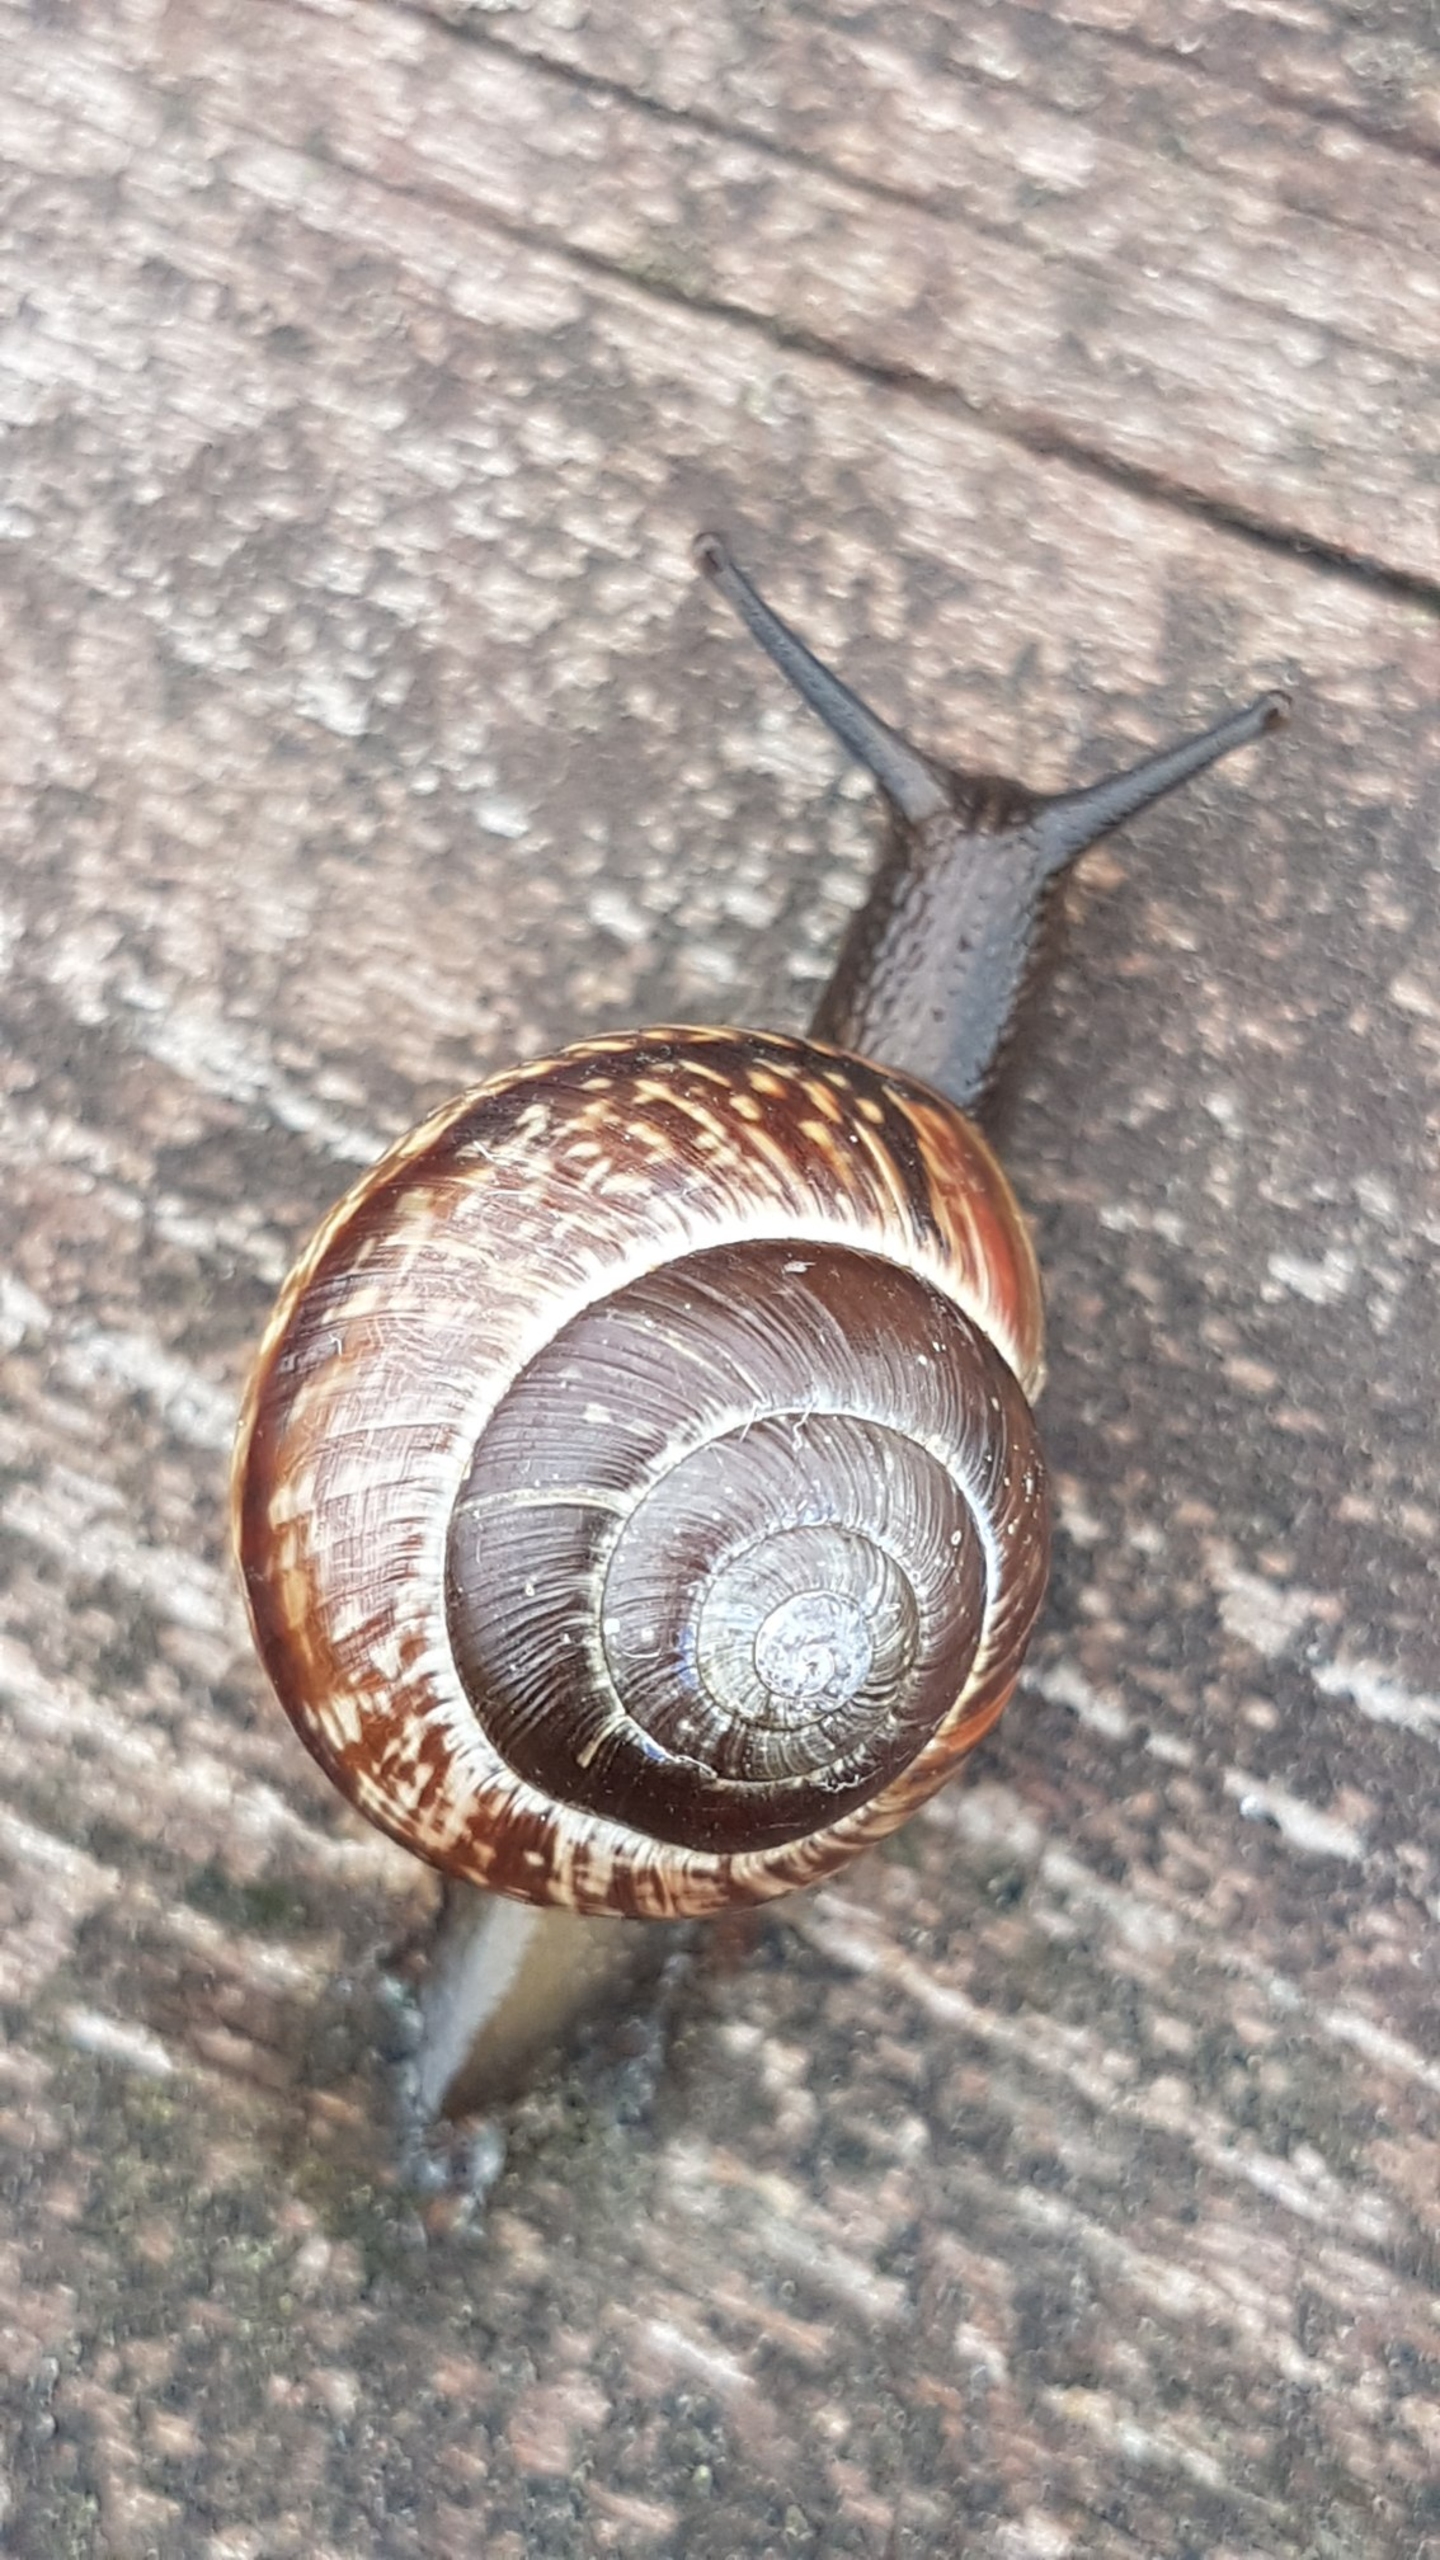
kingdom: Animalia
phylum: Mollusca
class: Gastropoda
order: Stylommatophora
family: Helicidae
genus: Arianta
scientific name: Arianta arbustorum
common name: Kratsnegl
